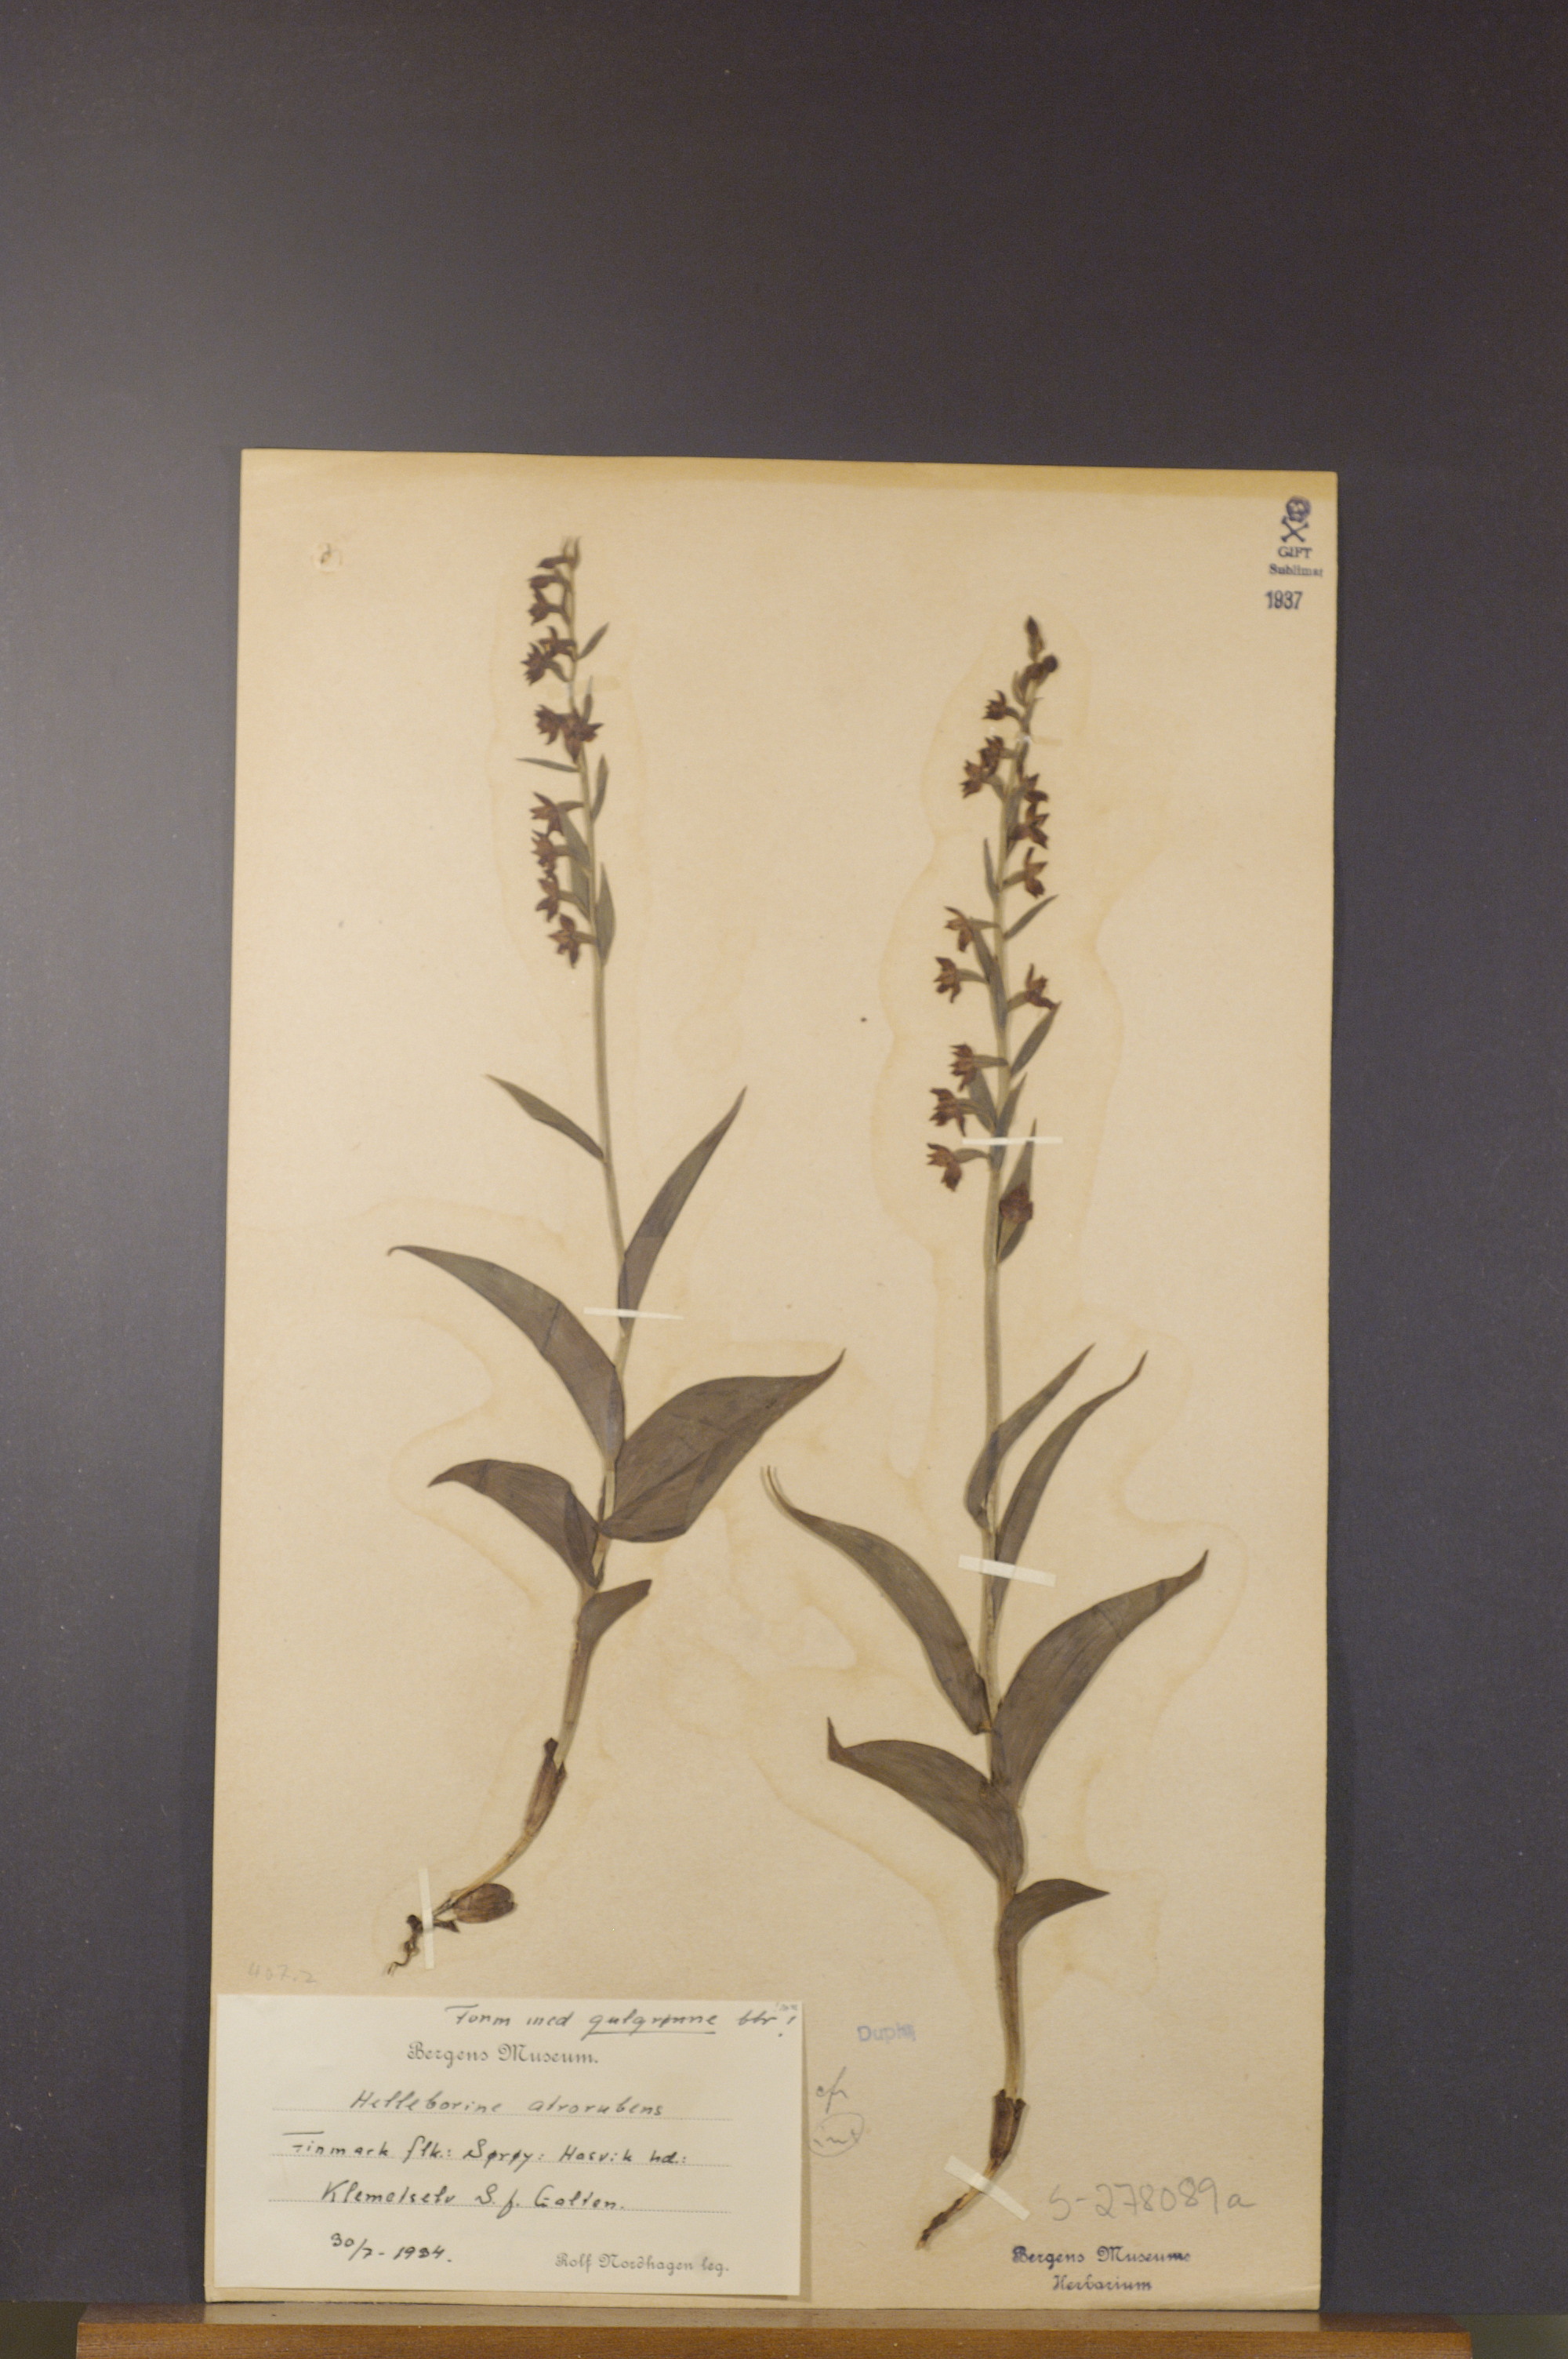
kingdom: Plantae
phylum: Tracheophyta
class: Liliopsida
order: Asparagales
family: Orchidaceae
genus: Epipactis
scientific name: Epipactis atrorubens
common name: Dark-red helleborine
